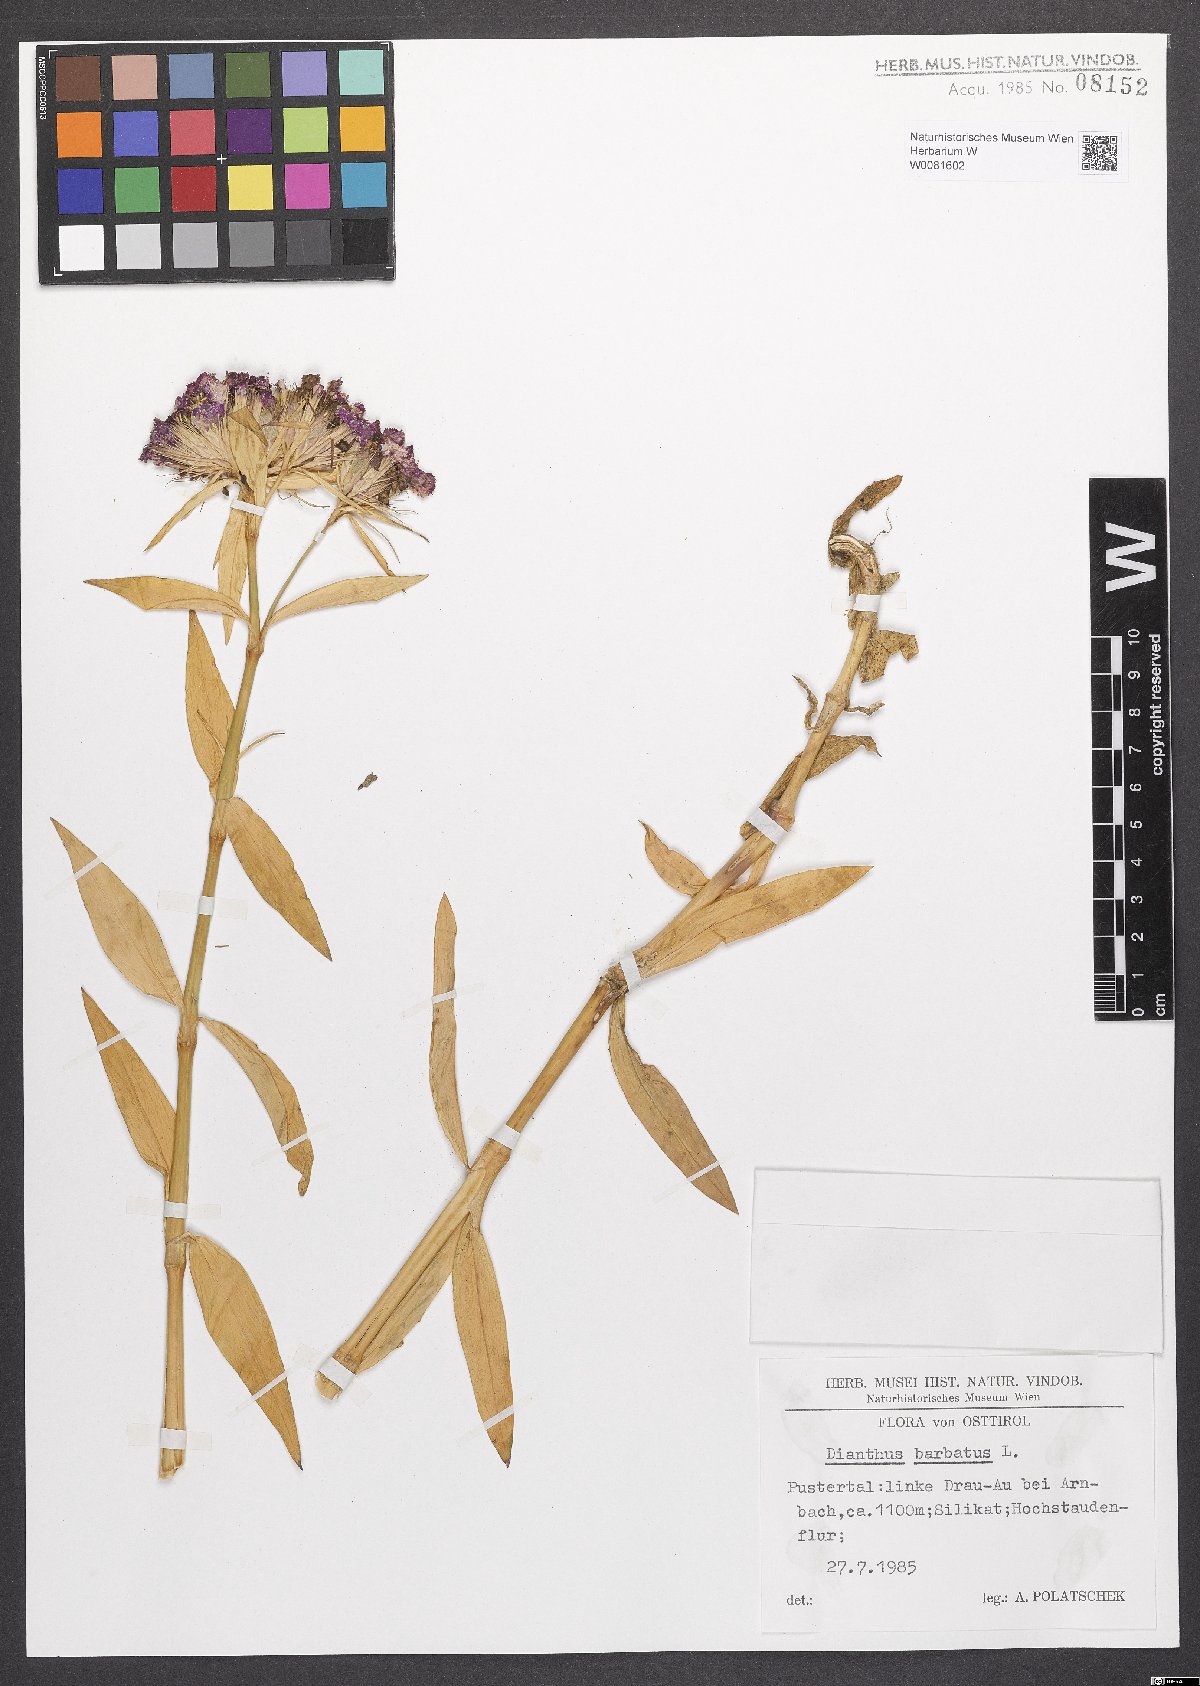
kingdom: Plantae
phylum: Tracheophyta
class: Magnoliopsida
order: Caryophyllales
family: Caryophyllaceae
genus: Dianthus
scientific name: Dianthus barbatus
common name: Sweet-william
